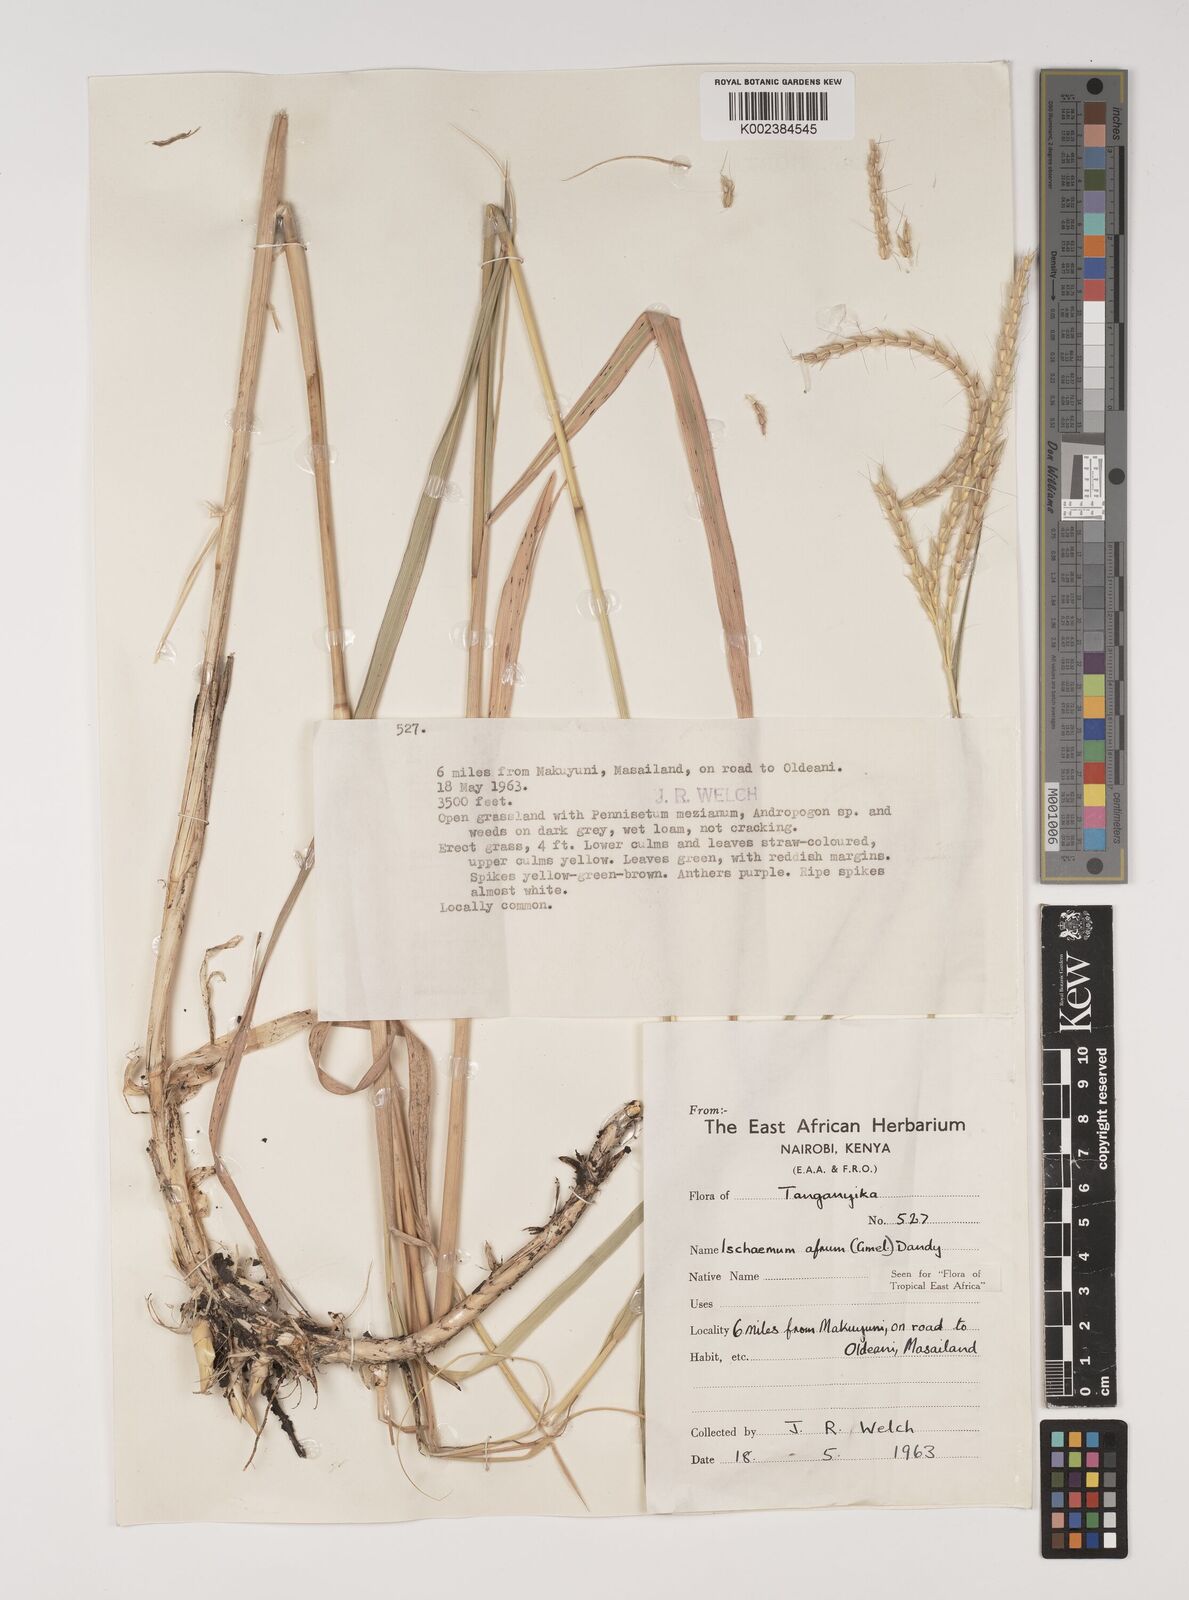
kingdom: Plantae
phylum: Tracheophyta
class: Liliopsida
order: Poales
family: Poaceae
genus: Ischaemum
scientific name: Ischaemum afrum
